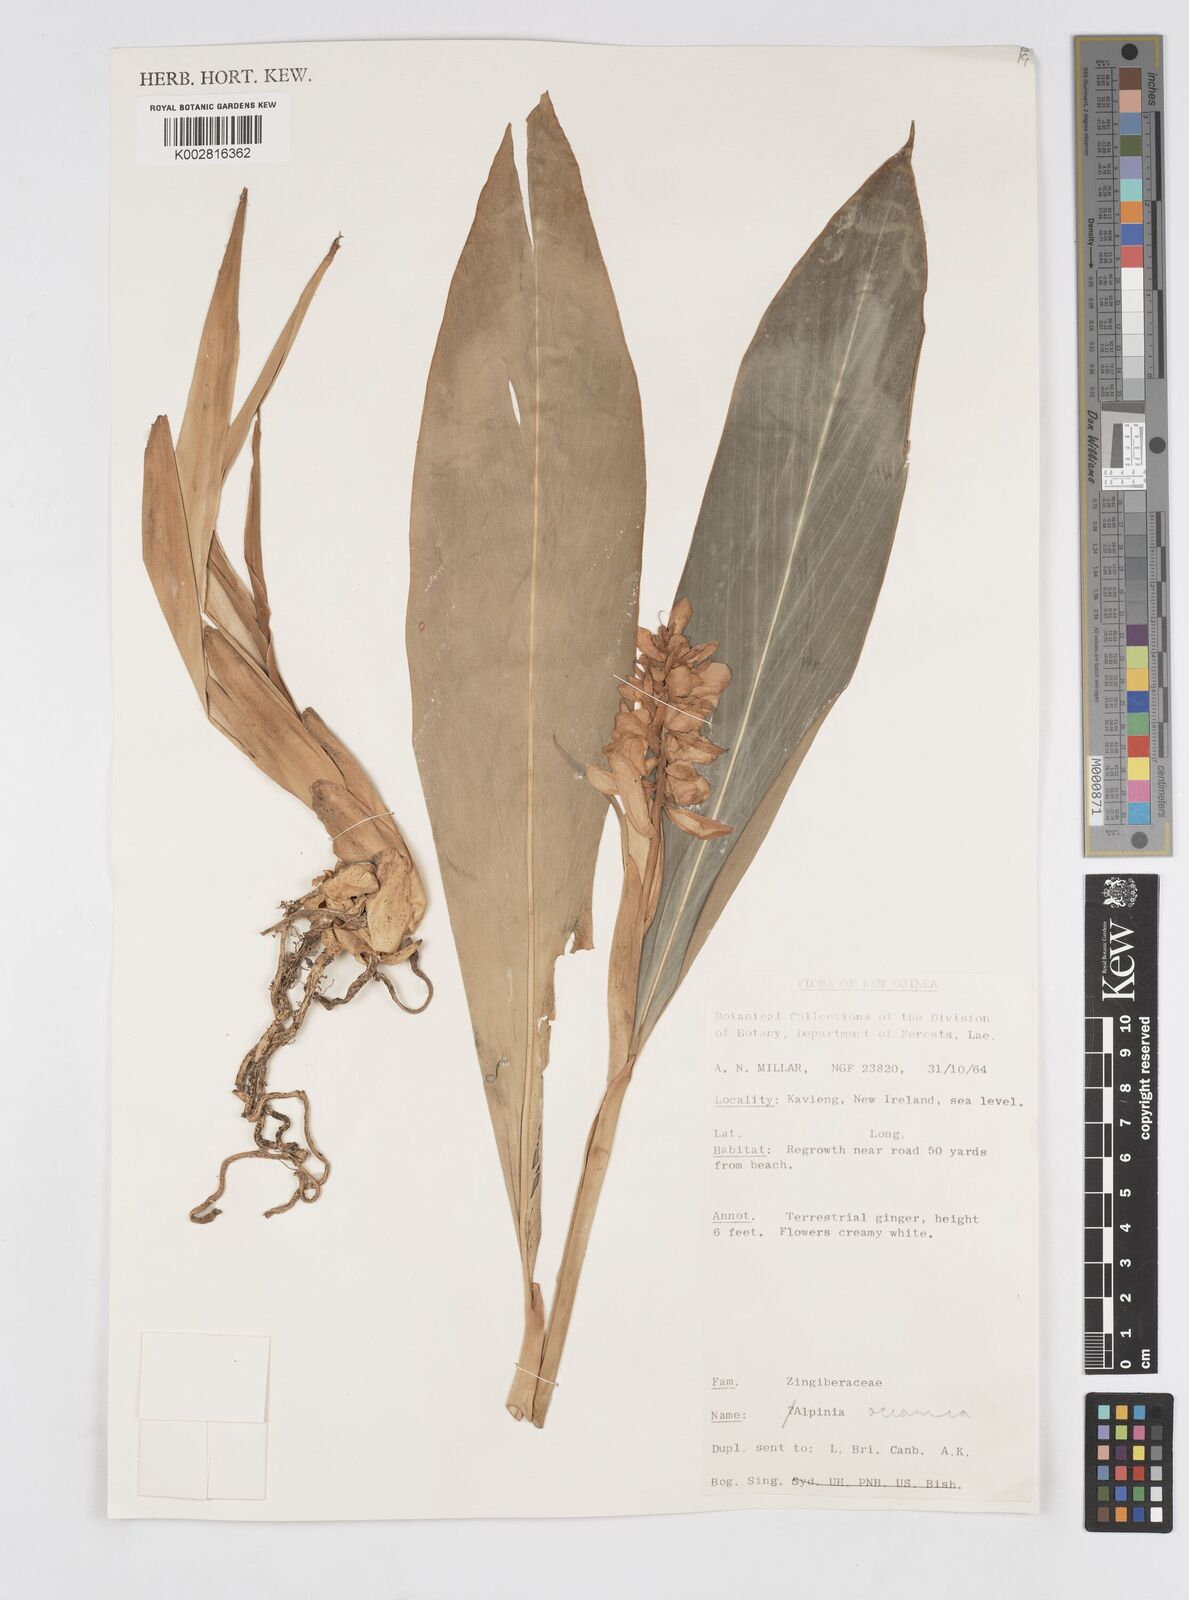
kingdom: Plantae
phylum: Tracheophyta
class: Liliopsida
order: Zingiberales
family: Zingiberaceae
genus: Alpinia
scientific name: Alpinia oceanica
